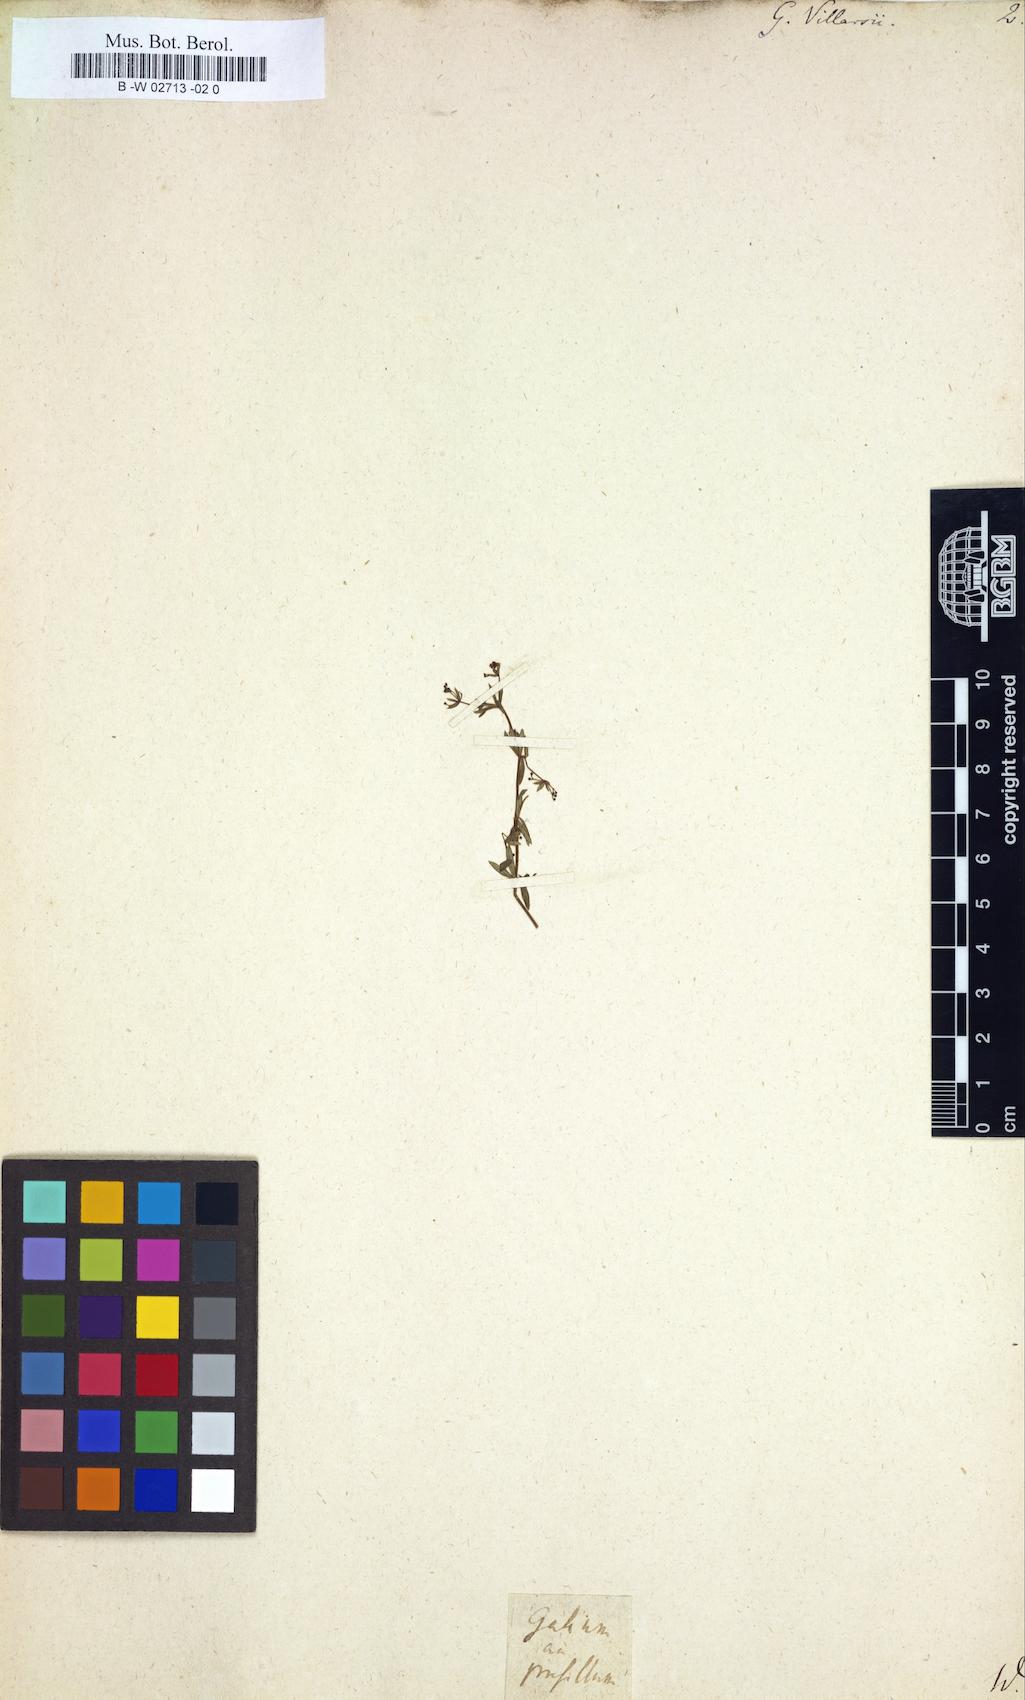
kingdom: Plantae
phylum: Tracheophyta
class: Magnoliopsida
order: Gentianales
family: Rubiaceae
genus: Galium
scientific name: Galium
